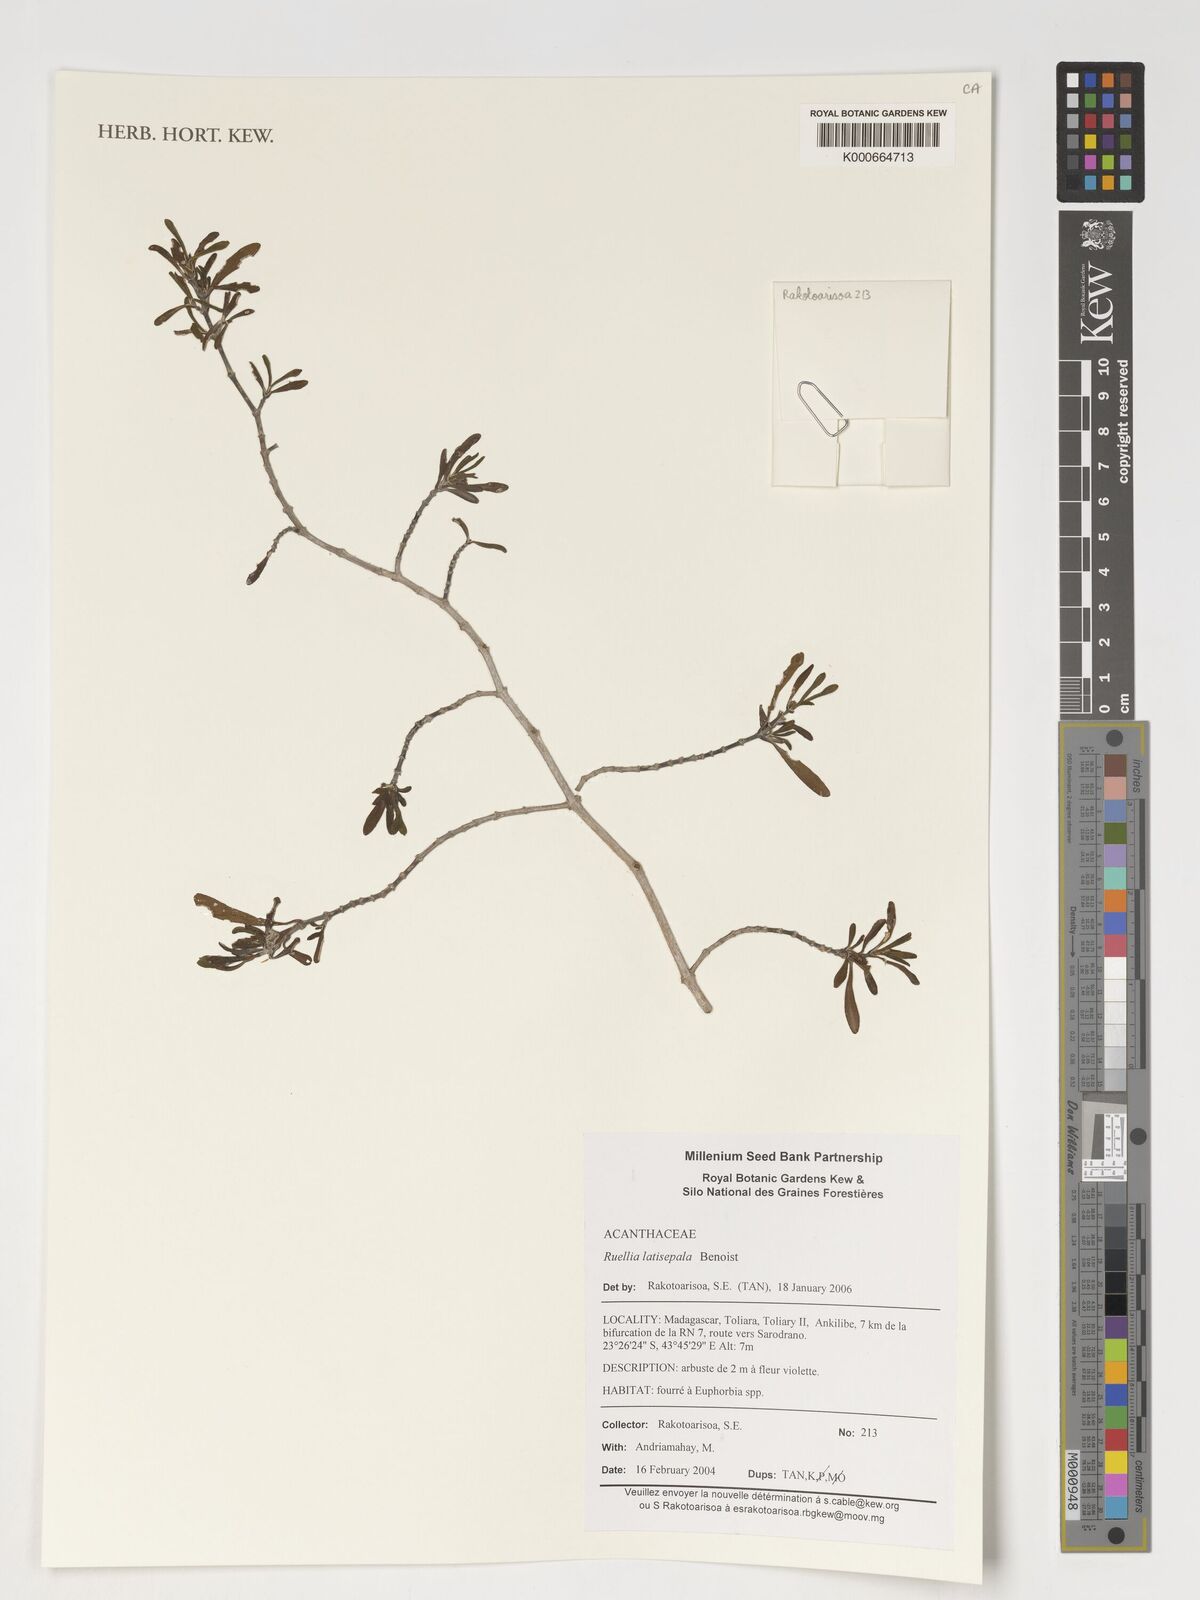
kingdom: Plantae
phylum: Tracheophyta
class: Magnoliopsida
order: Lamiales
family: Acanthaceae
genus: Ruellia
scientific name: Ruellia latisepala
